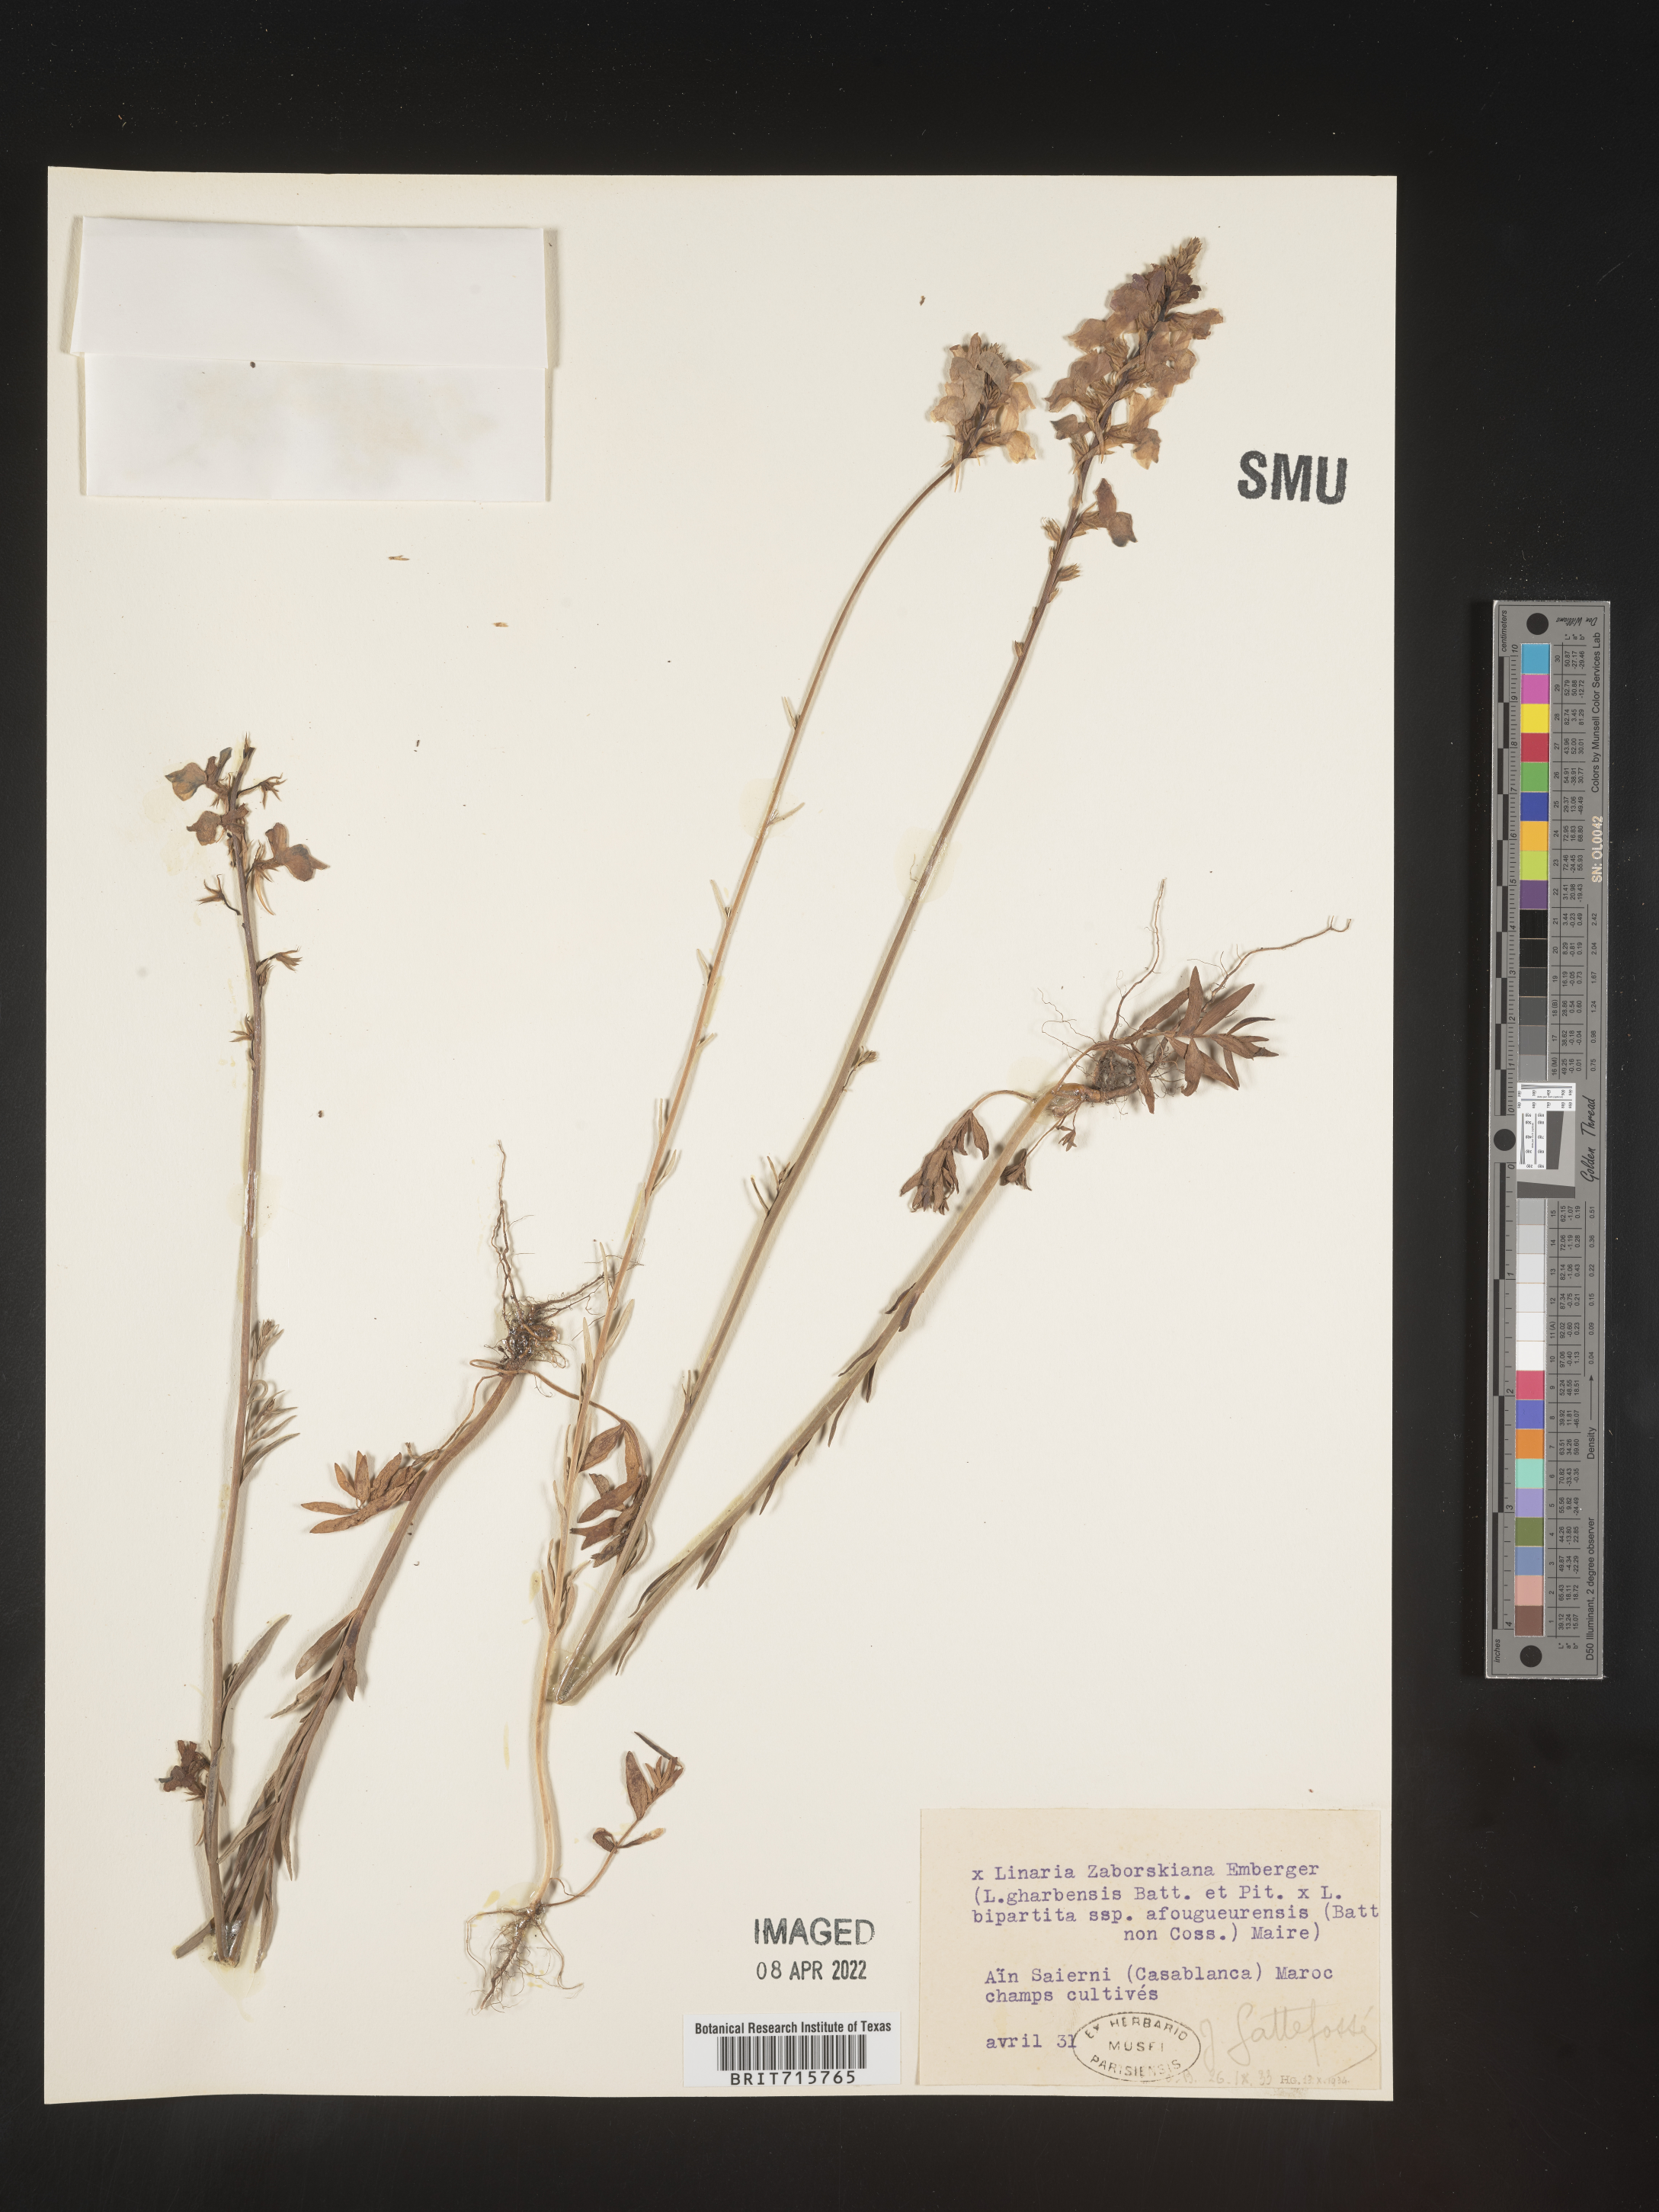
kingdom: Plantae
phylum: Tracheophyta
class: Magnoliopsida
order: Lamiales
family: Plantaginaceae
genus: Linaria
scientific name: Linaria
